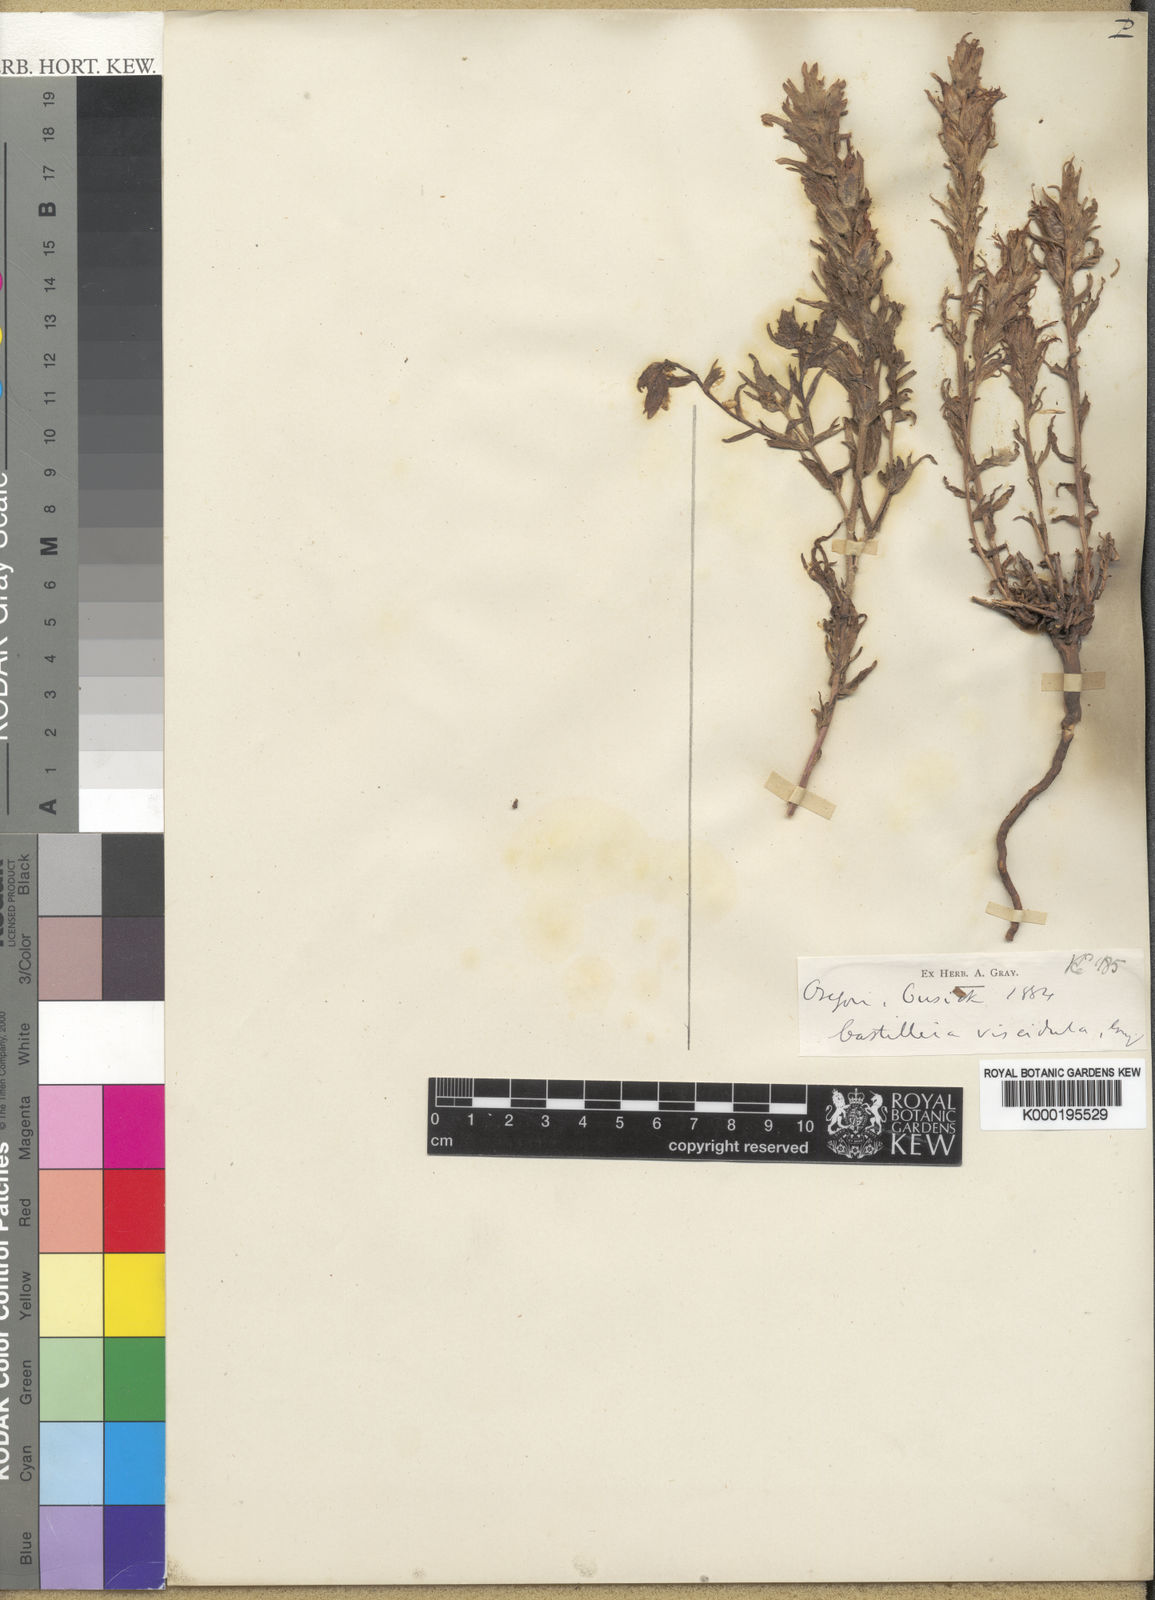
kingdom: Plantae
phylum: Tracheophyta
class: Magnoliopsida
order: Lamiales
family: Orobanchaceae
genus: Castilleja
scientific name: Castilleja viscidula
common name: Sticky paintbrush
